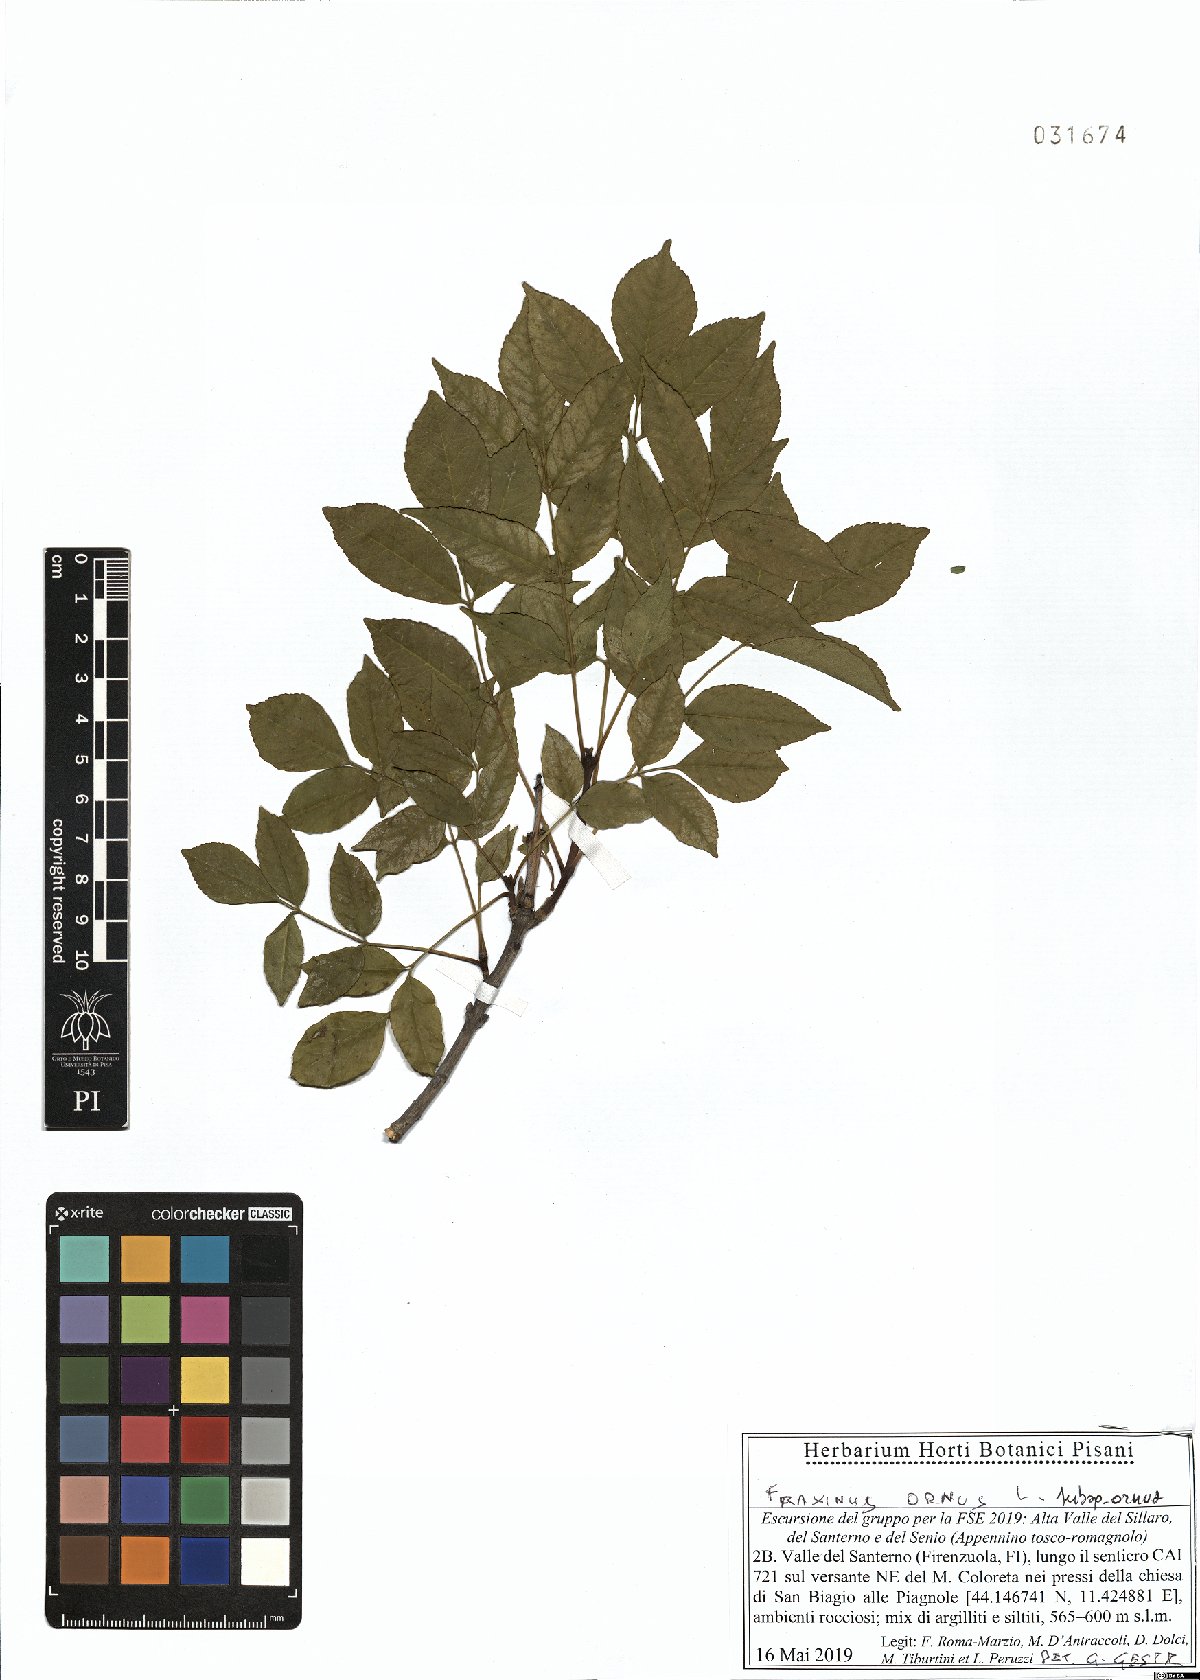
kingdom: Plantae
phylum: Tracheophyta
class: Magnoliopsida
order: Lamiales
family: Oleaceae
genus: Fraxinus
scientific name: Fraxinus ornus
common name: Manna ash
